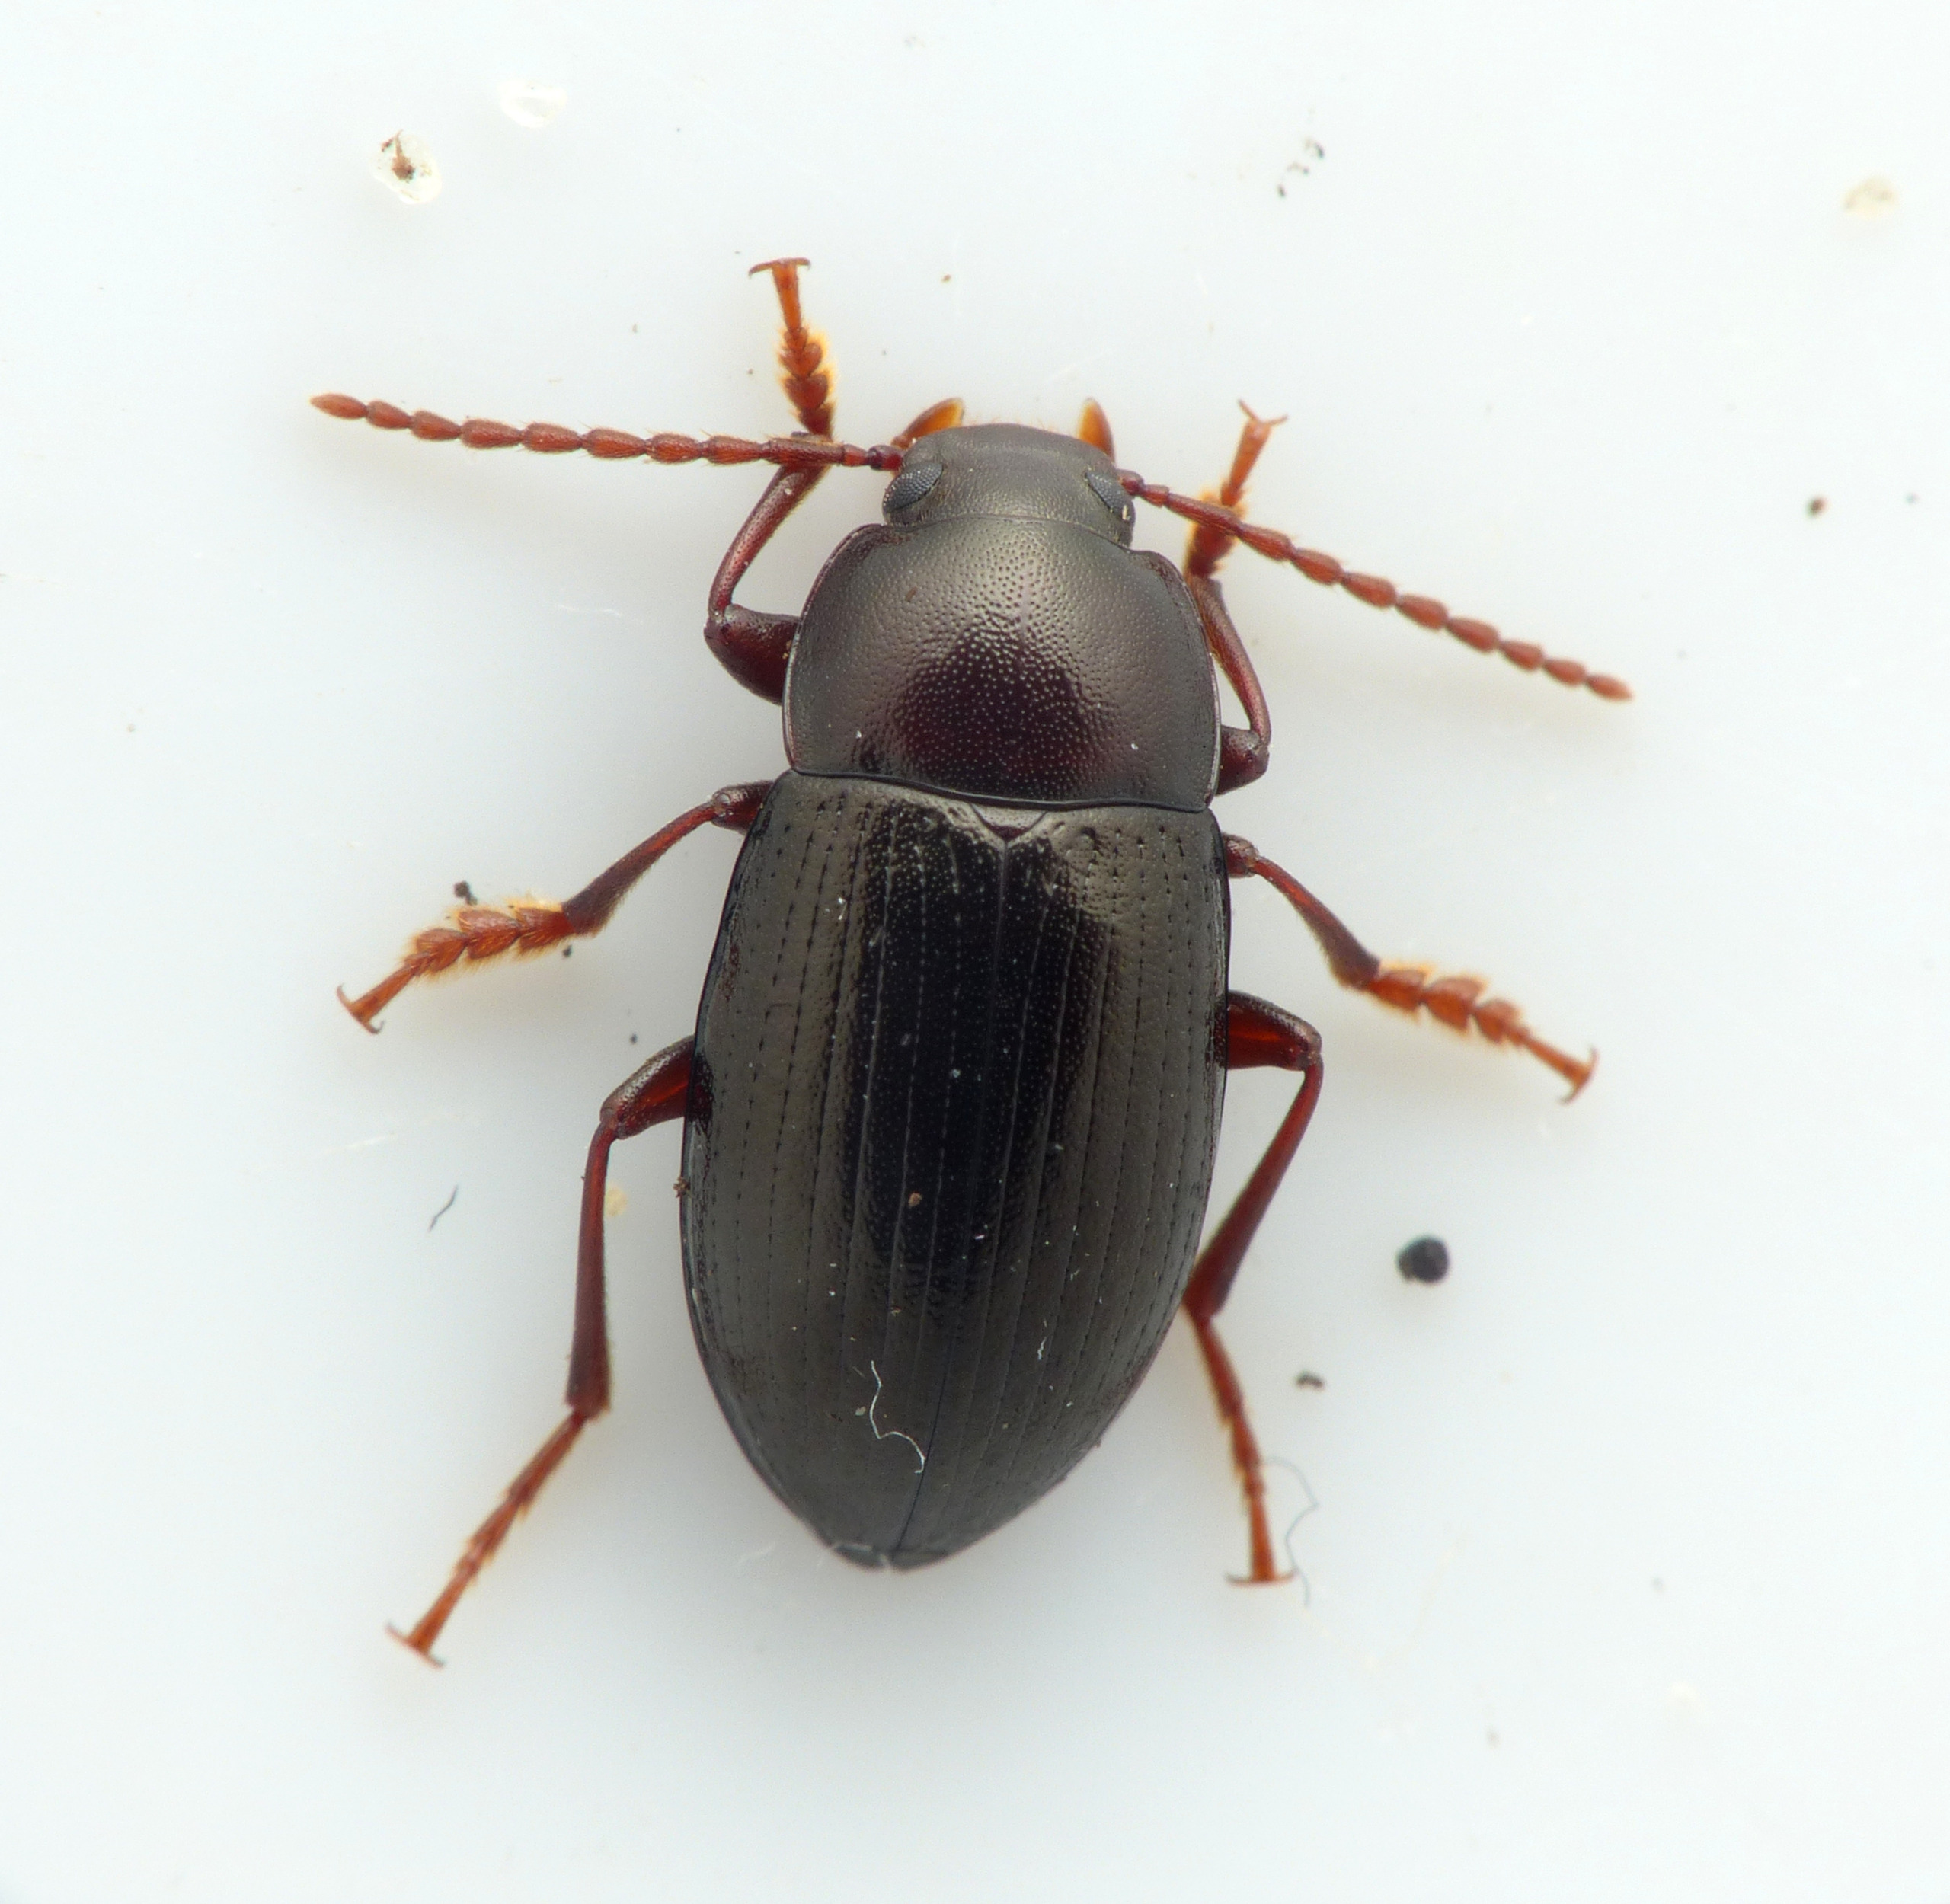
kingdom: Animalia
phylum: Arthropoda
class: Insecta
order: Coleoptera
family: Tenebrionidae
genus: Nalassus
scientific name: Nalassus laevioctostriatus
